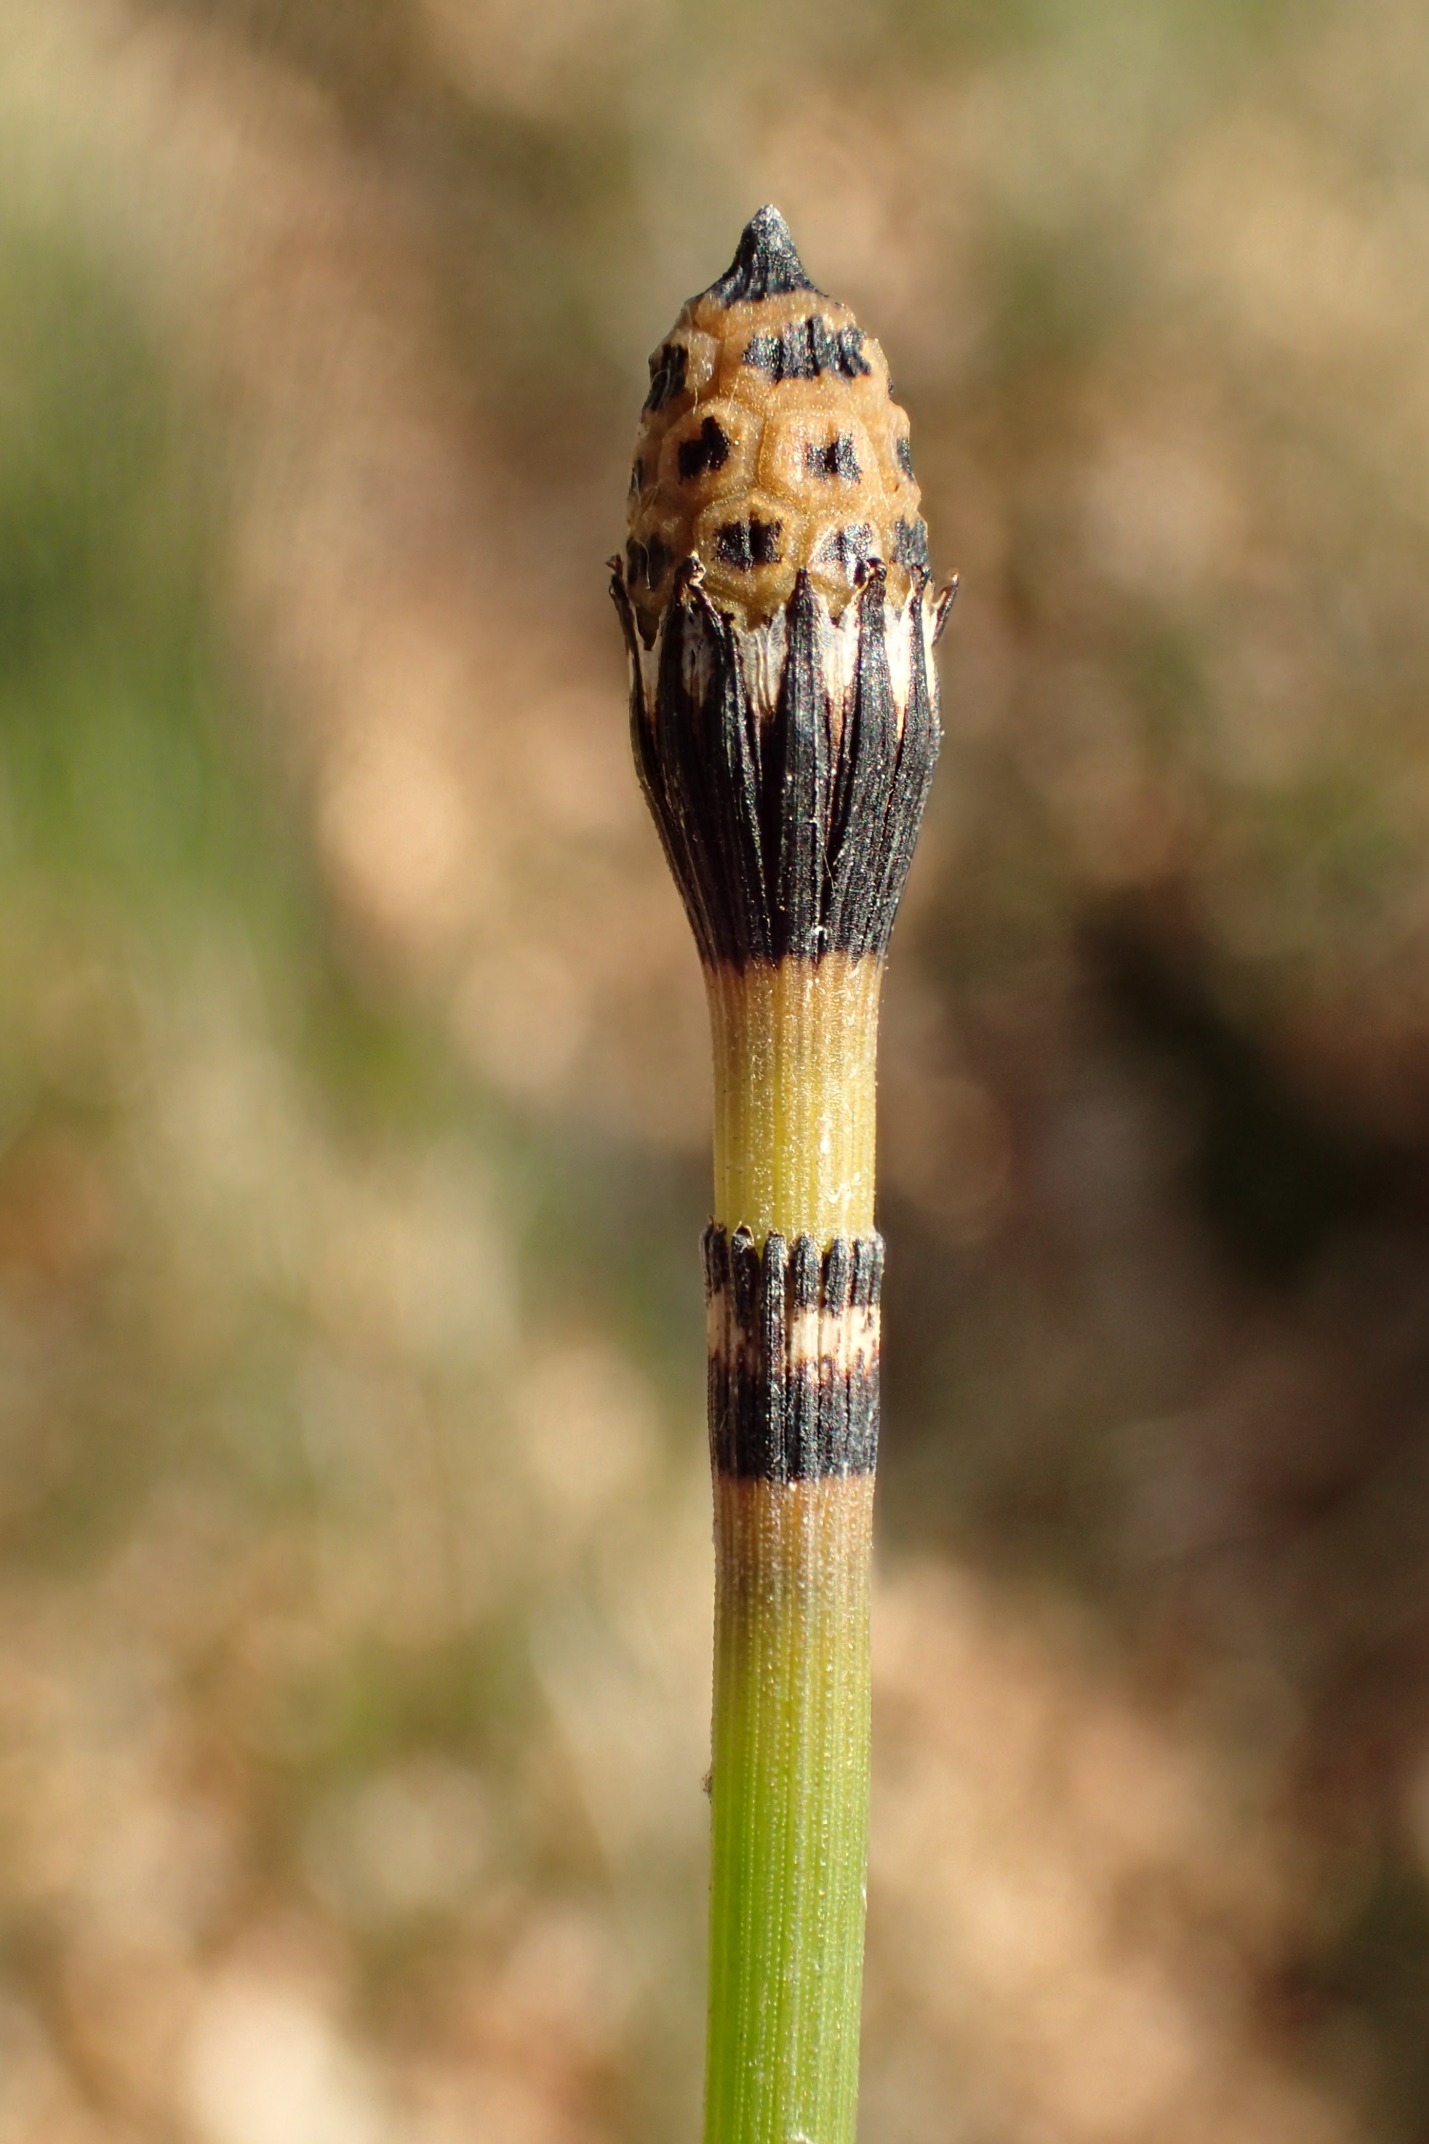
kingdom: Plantae
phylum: Tracheophyta
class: Polypodiopsida
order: Equisetales
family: Equisetaceae
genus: Equisetum
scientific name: Equisetum hyemale
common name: Skavgræs
